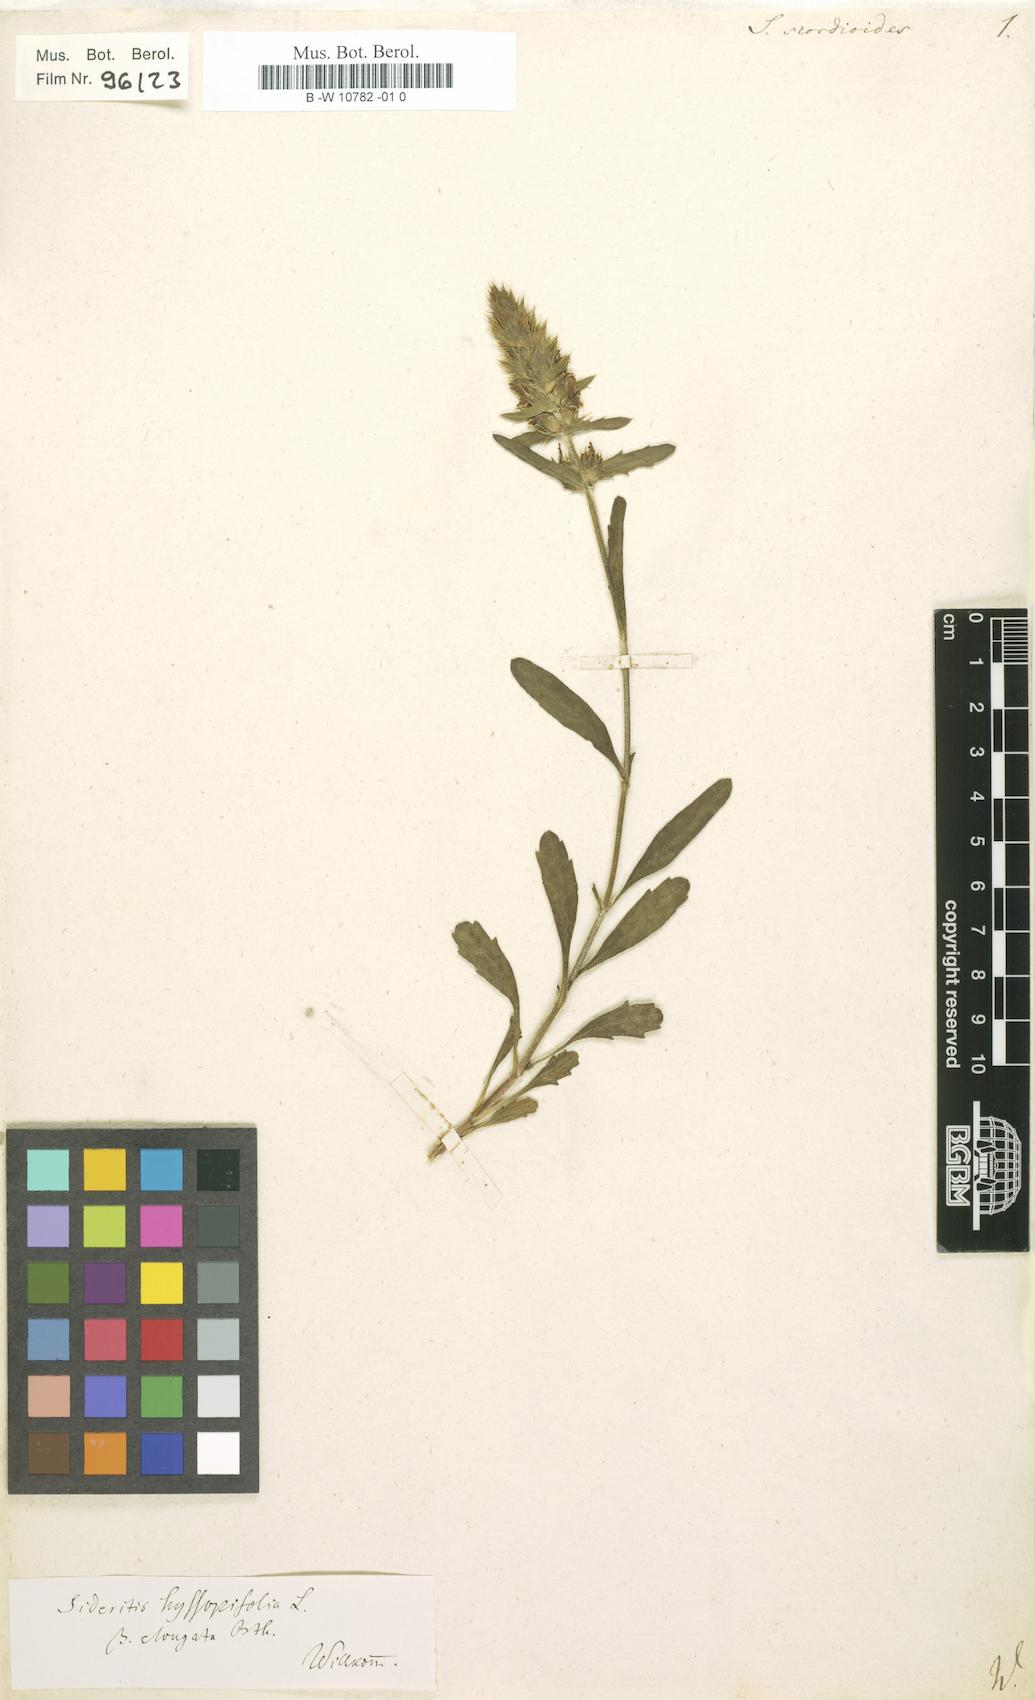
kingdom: Plantae
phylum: Tracheophyta
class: Magnoliopsida
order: Lamiales
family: Lamiaceae
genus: Sideritis
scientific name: Sideritis hyssopifolia
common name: Mountain tea
